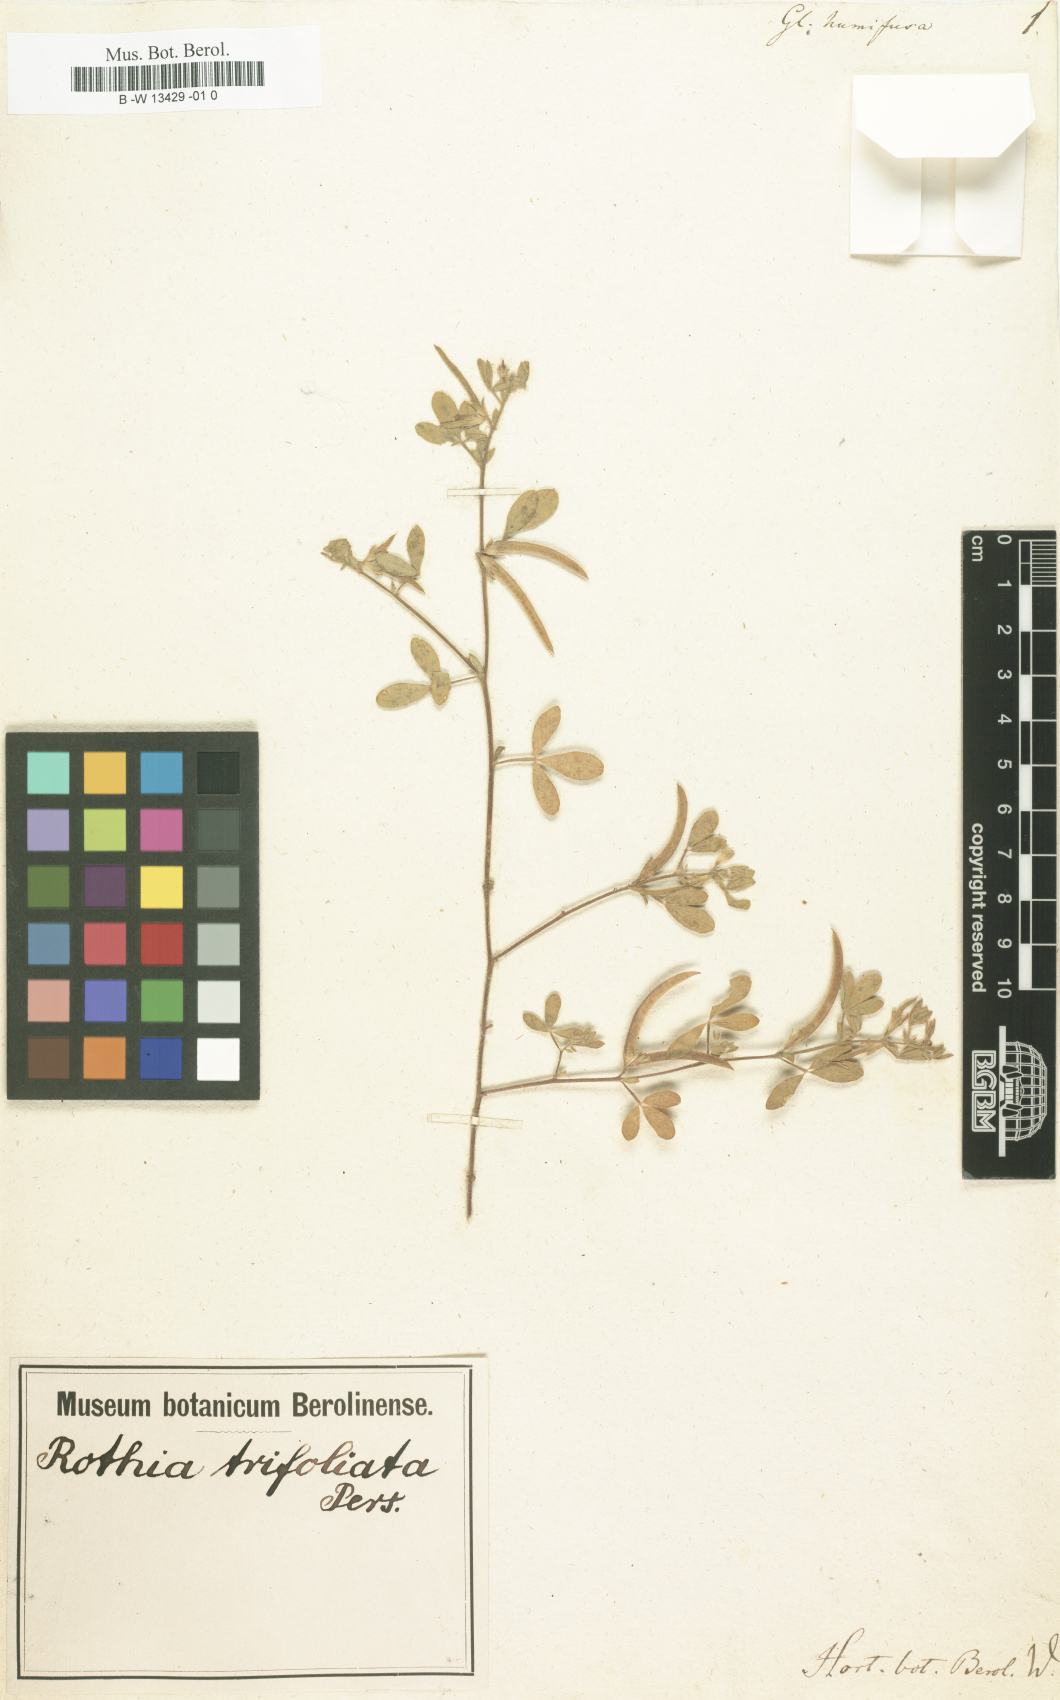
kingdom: Plantae
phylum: Tracheophyta
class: Magnoliopsida
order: Fabales
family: Fabaceae
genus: Rothia
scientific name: Rothia indica
